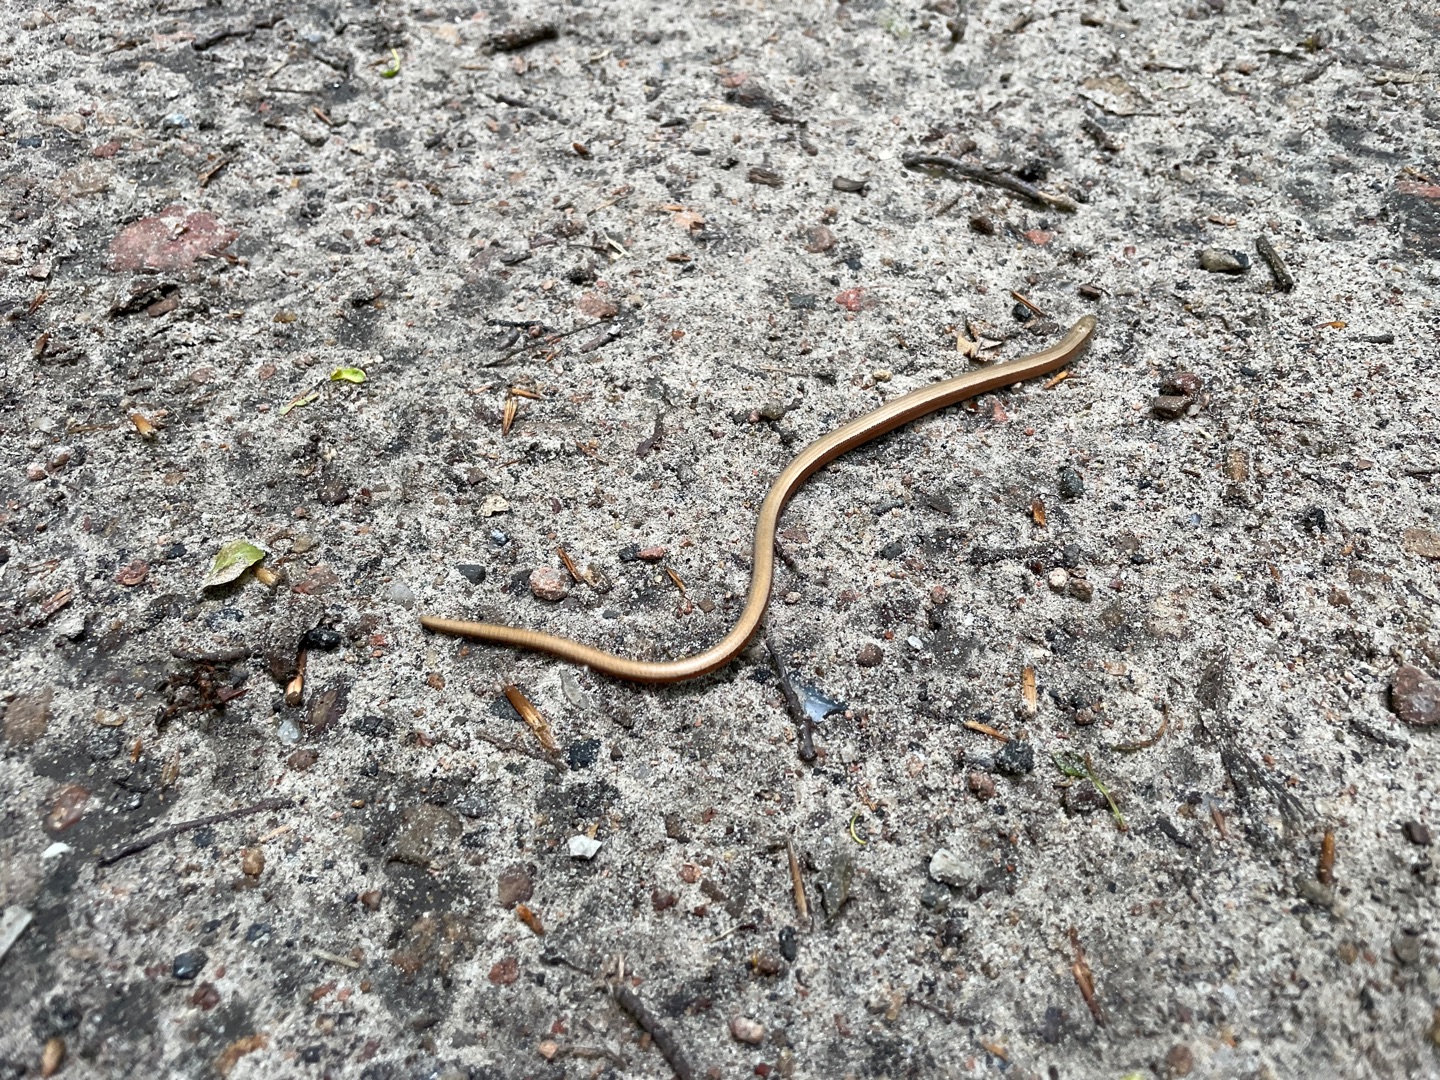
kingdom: Animalia
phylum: Chordata
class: Squamata
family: Anguidae
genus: Anguis
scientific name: Anguis fragilis
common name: Stålorm
